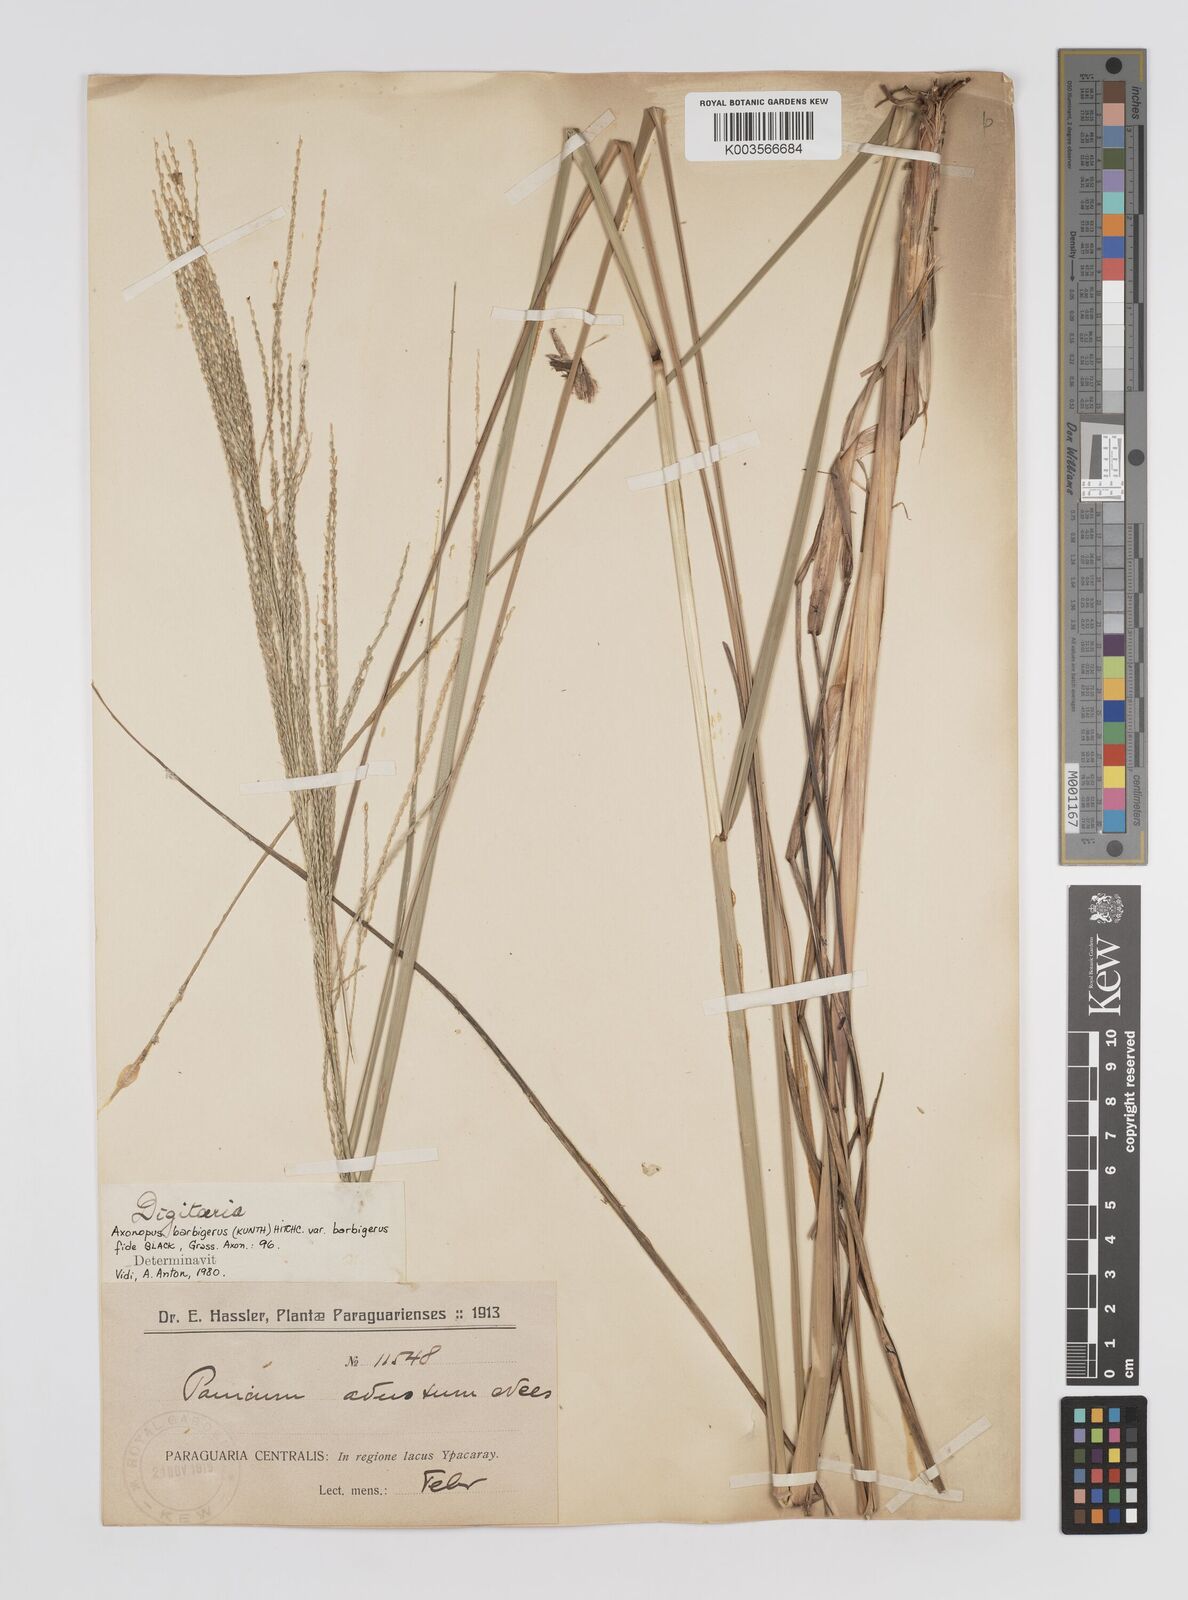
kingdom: Plantae
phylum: Tracheophyta
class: Liliopsida
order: Poales
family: Poaceae
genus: Axonopus
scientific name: Axonopus siccus
